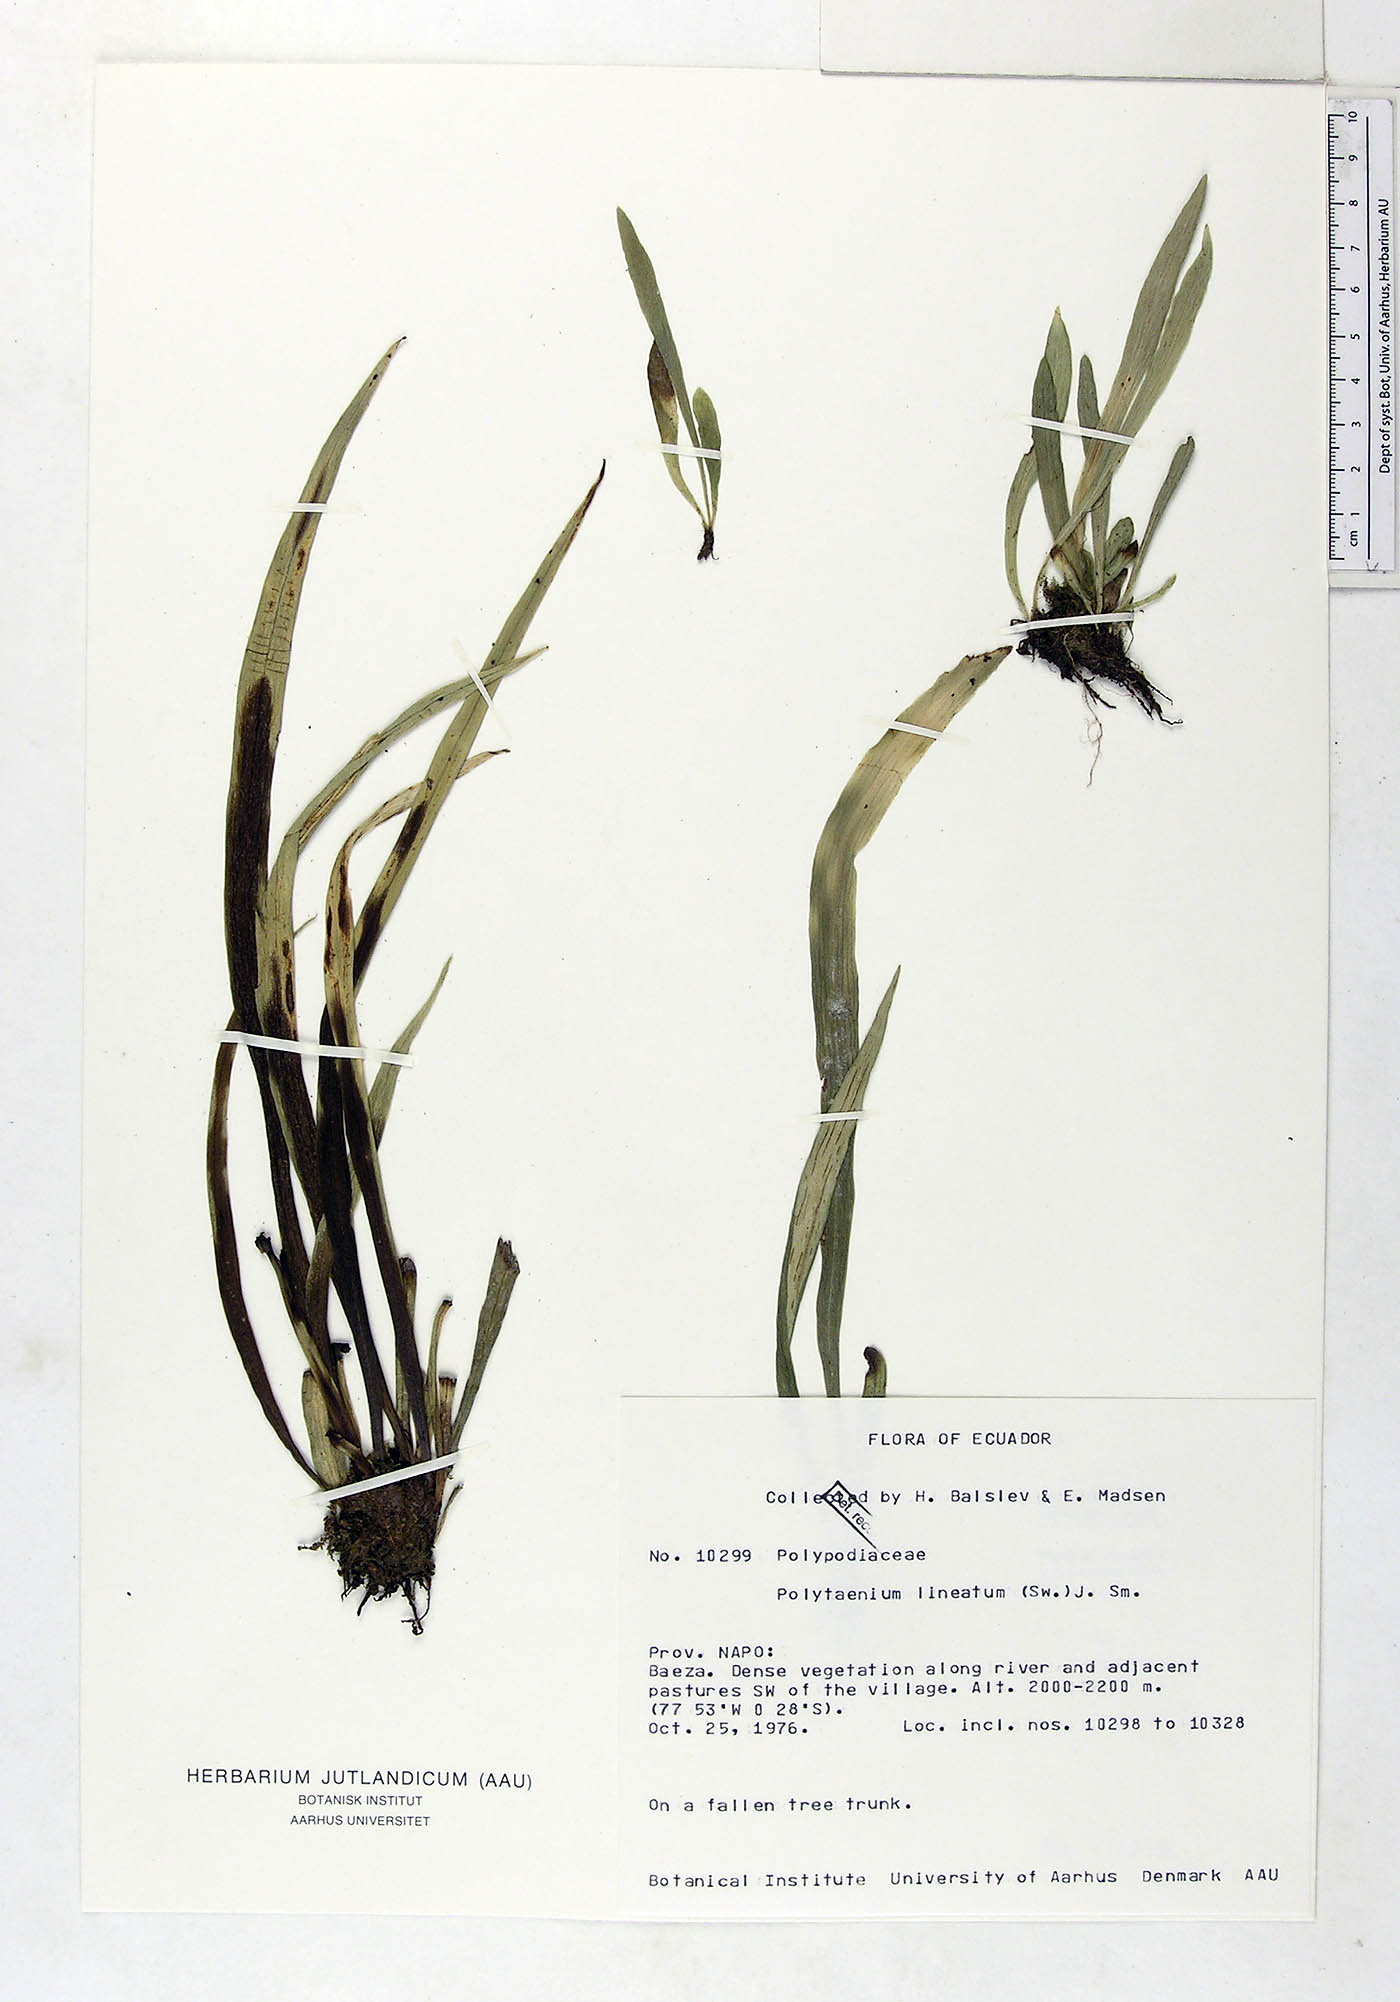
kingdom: Plantae
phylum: Tracheophyta
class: Polypodiopsida
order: Polypodiales
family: Pteridaceae
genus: Polytaenium
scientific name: Polytaenium lineatum
